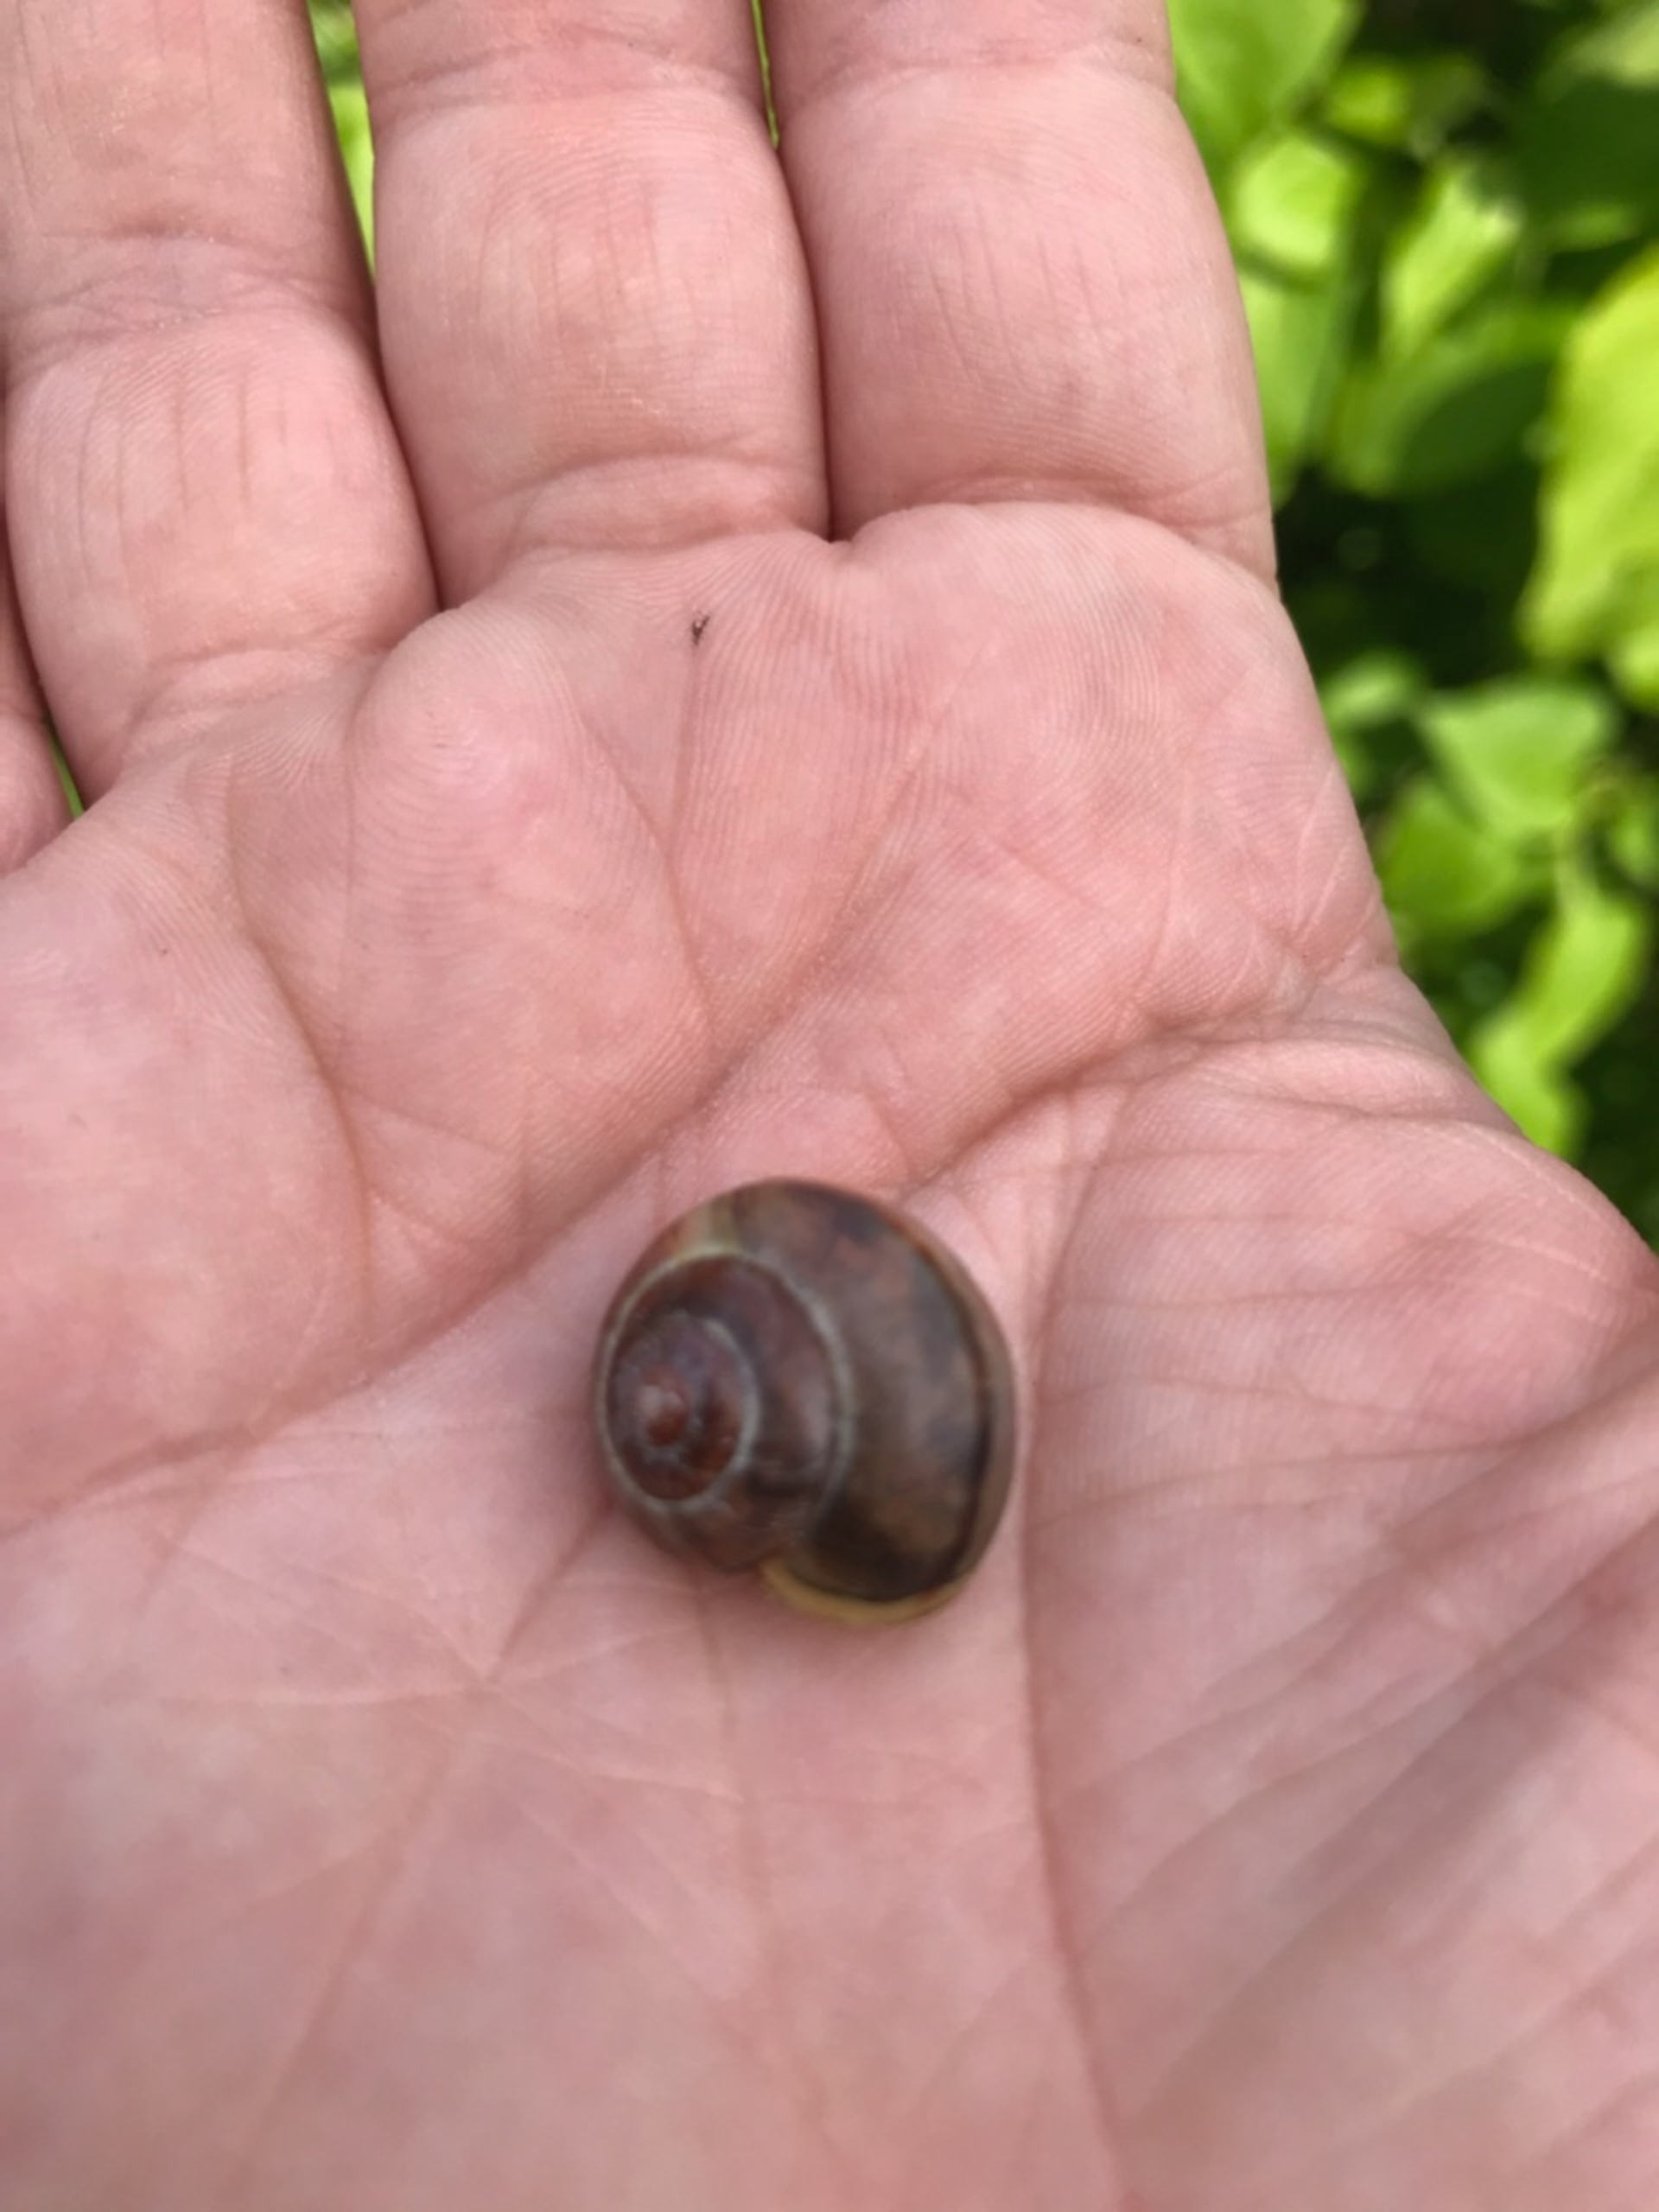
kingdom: Animalia
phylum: Mollusca
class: Gastropoda
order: Stylommatophora
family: Helicidae
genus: Cepaea
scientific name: Cepaea hortensis
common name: Havesnegl
